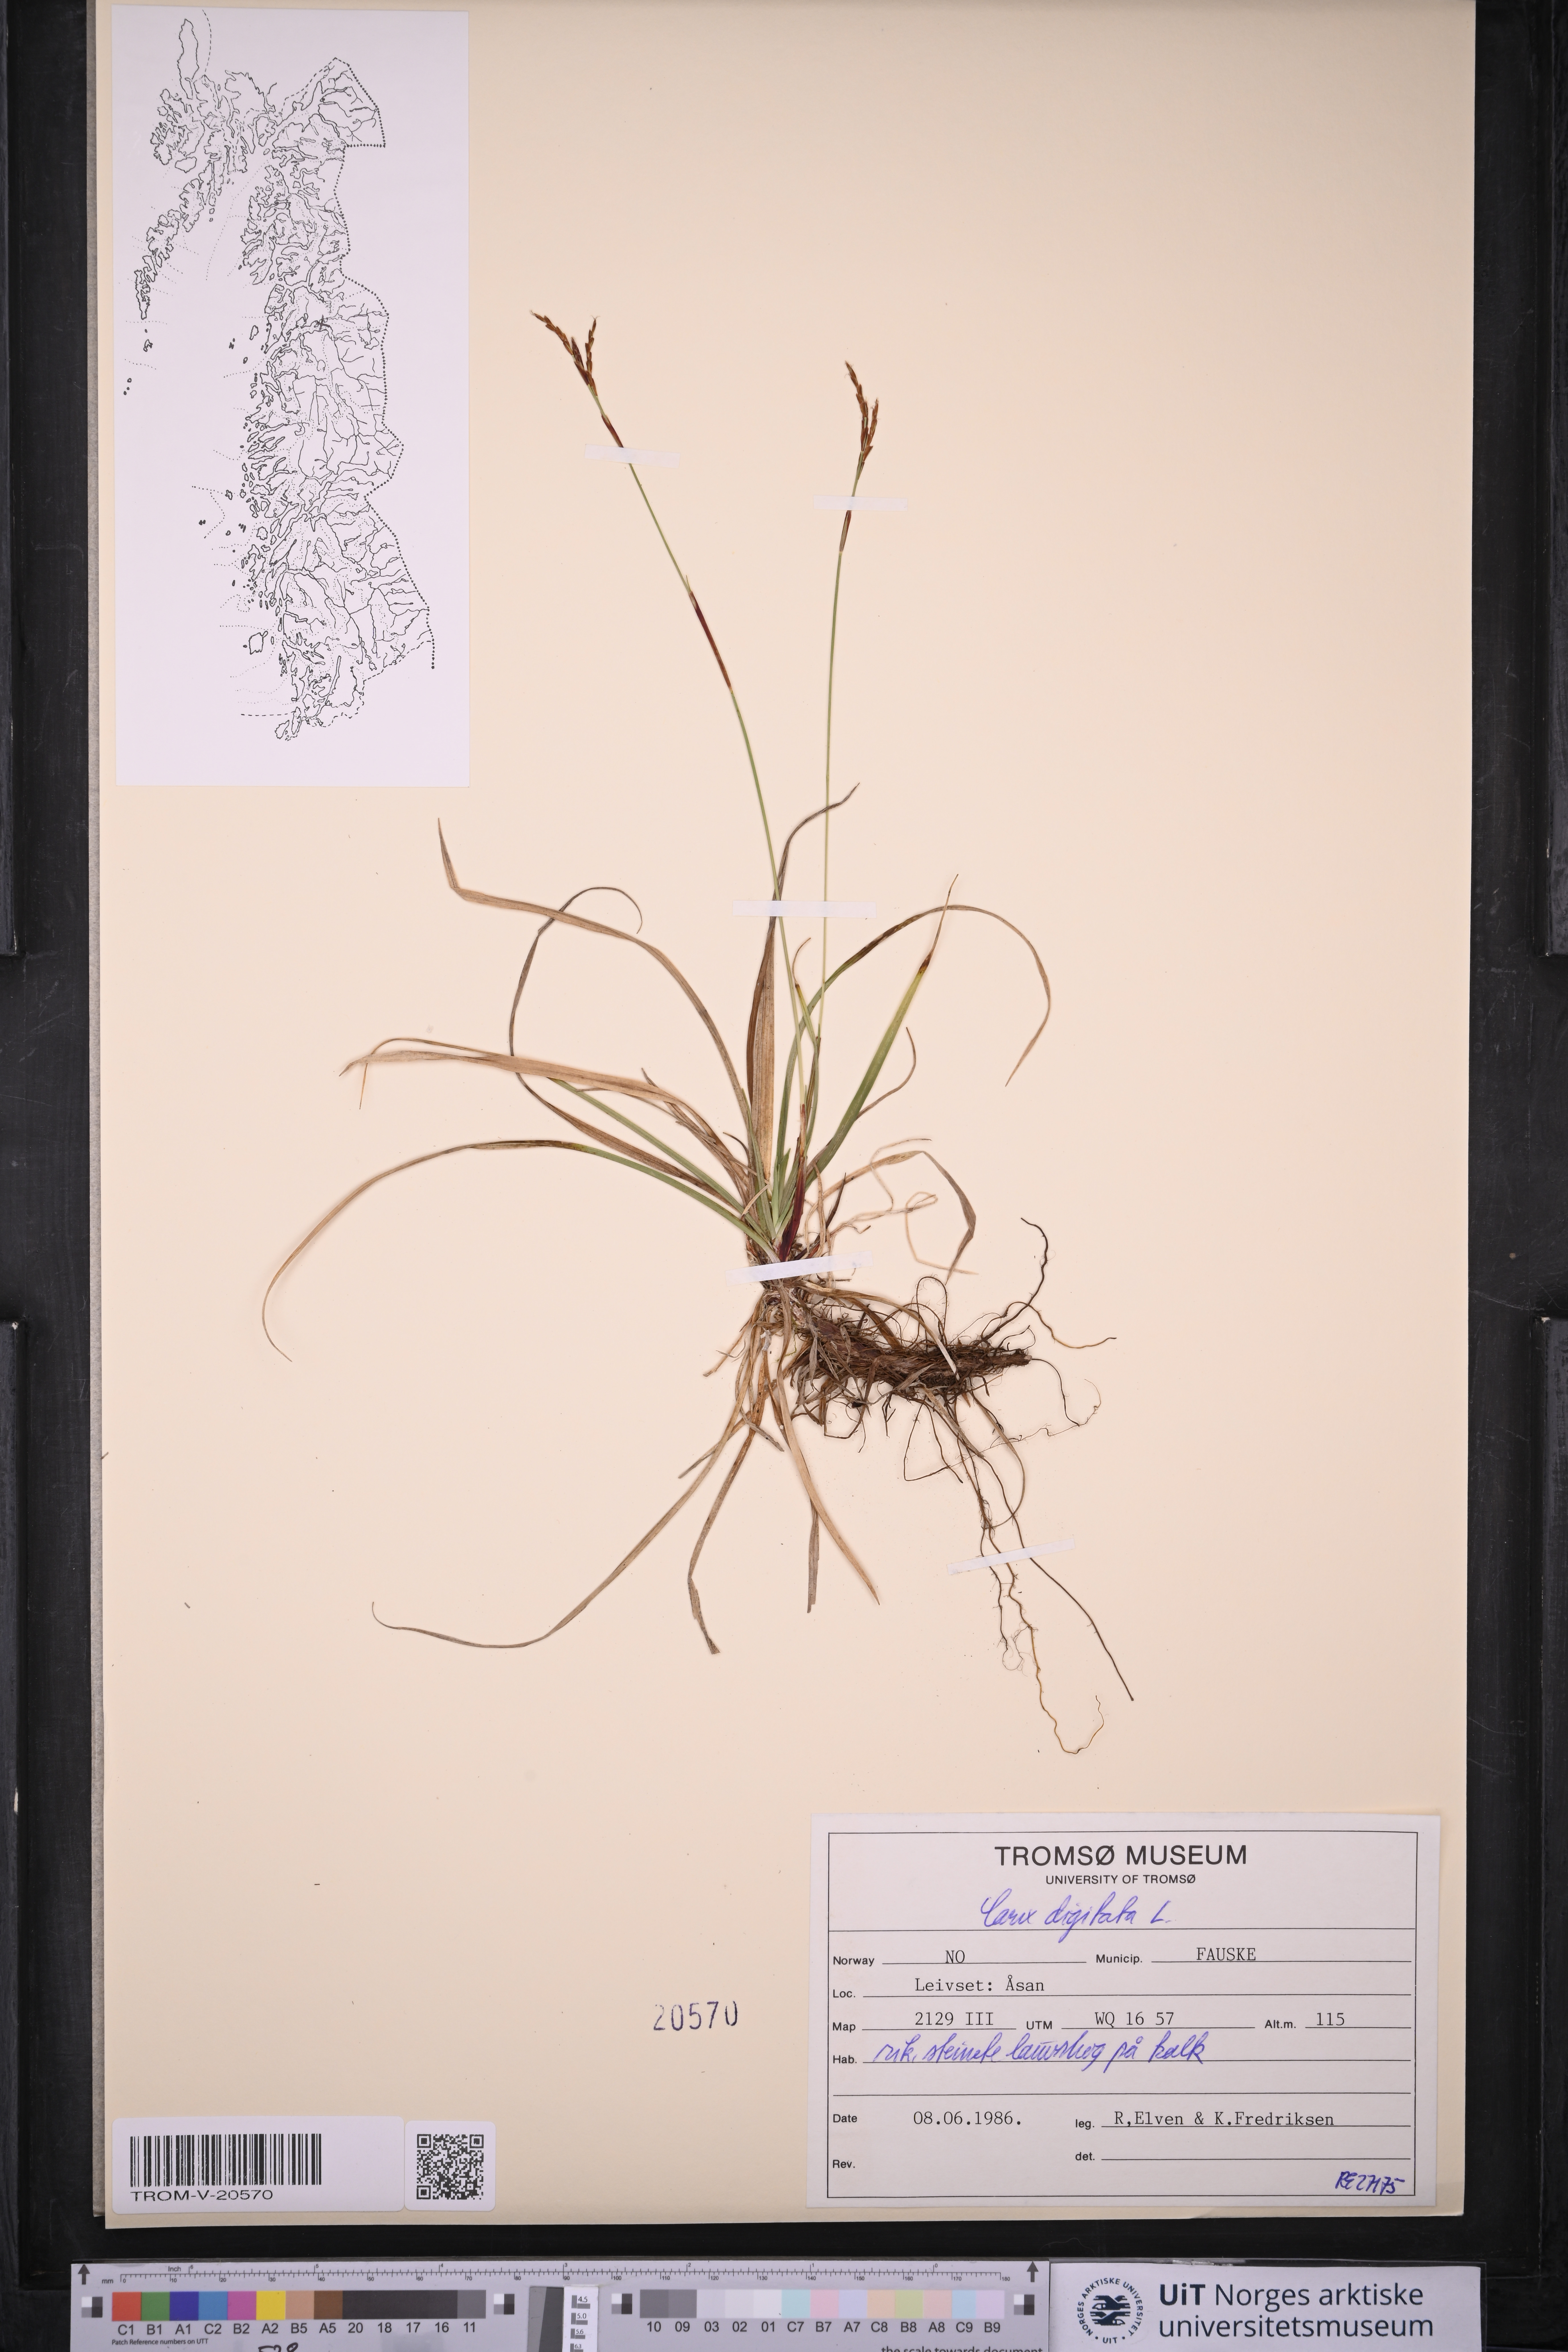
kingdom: Plantae
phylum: Tracheophyta
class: Liliopsida
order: Poales
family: Cyperaceae
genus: Carex
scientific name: Carex digitata
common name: Fingered sedge
